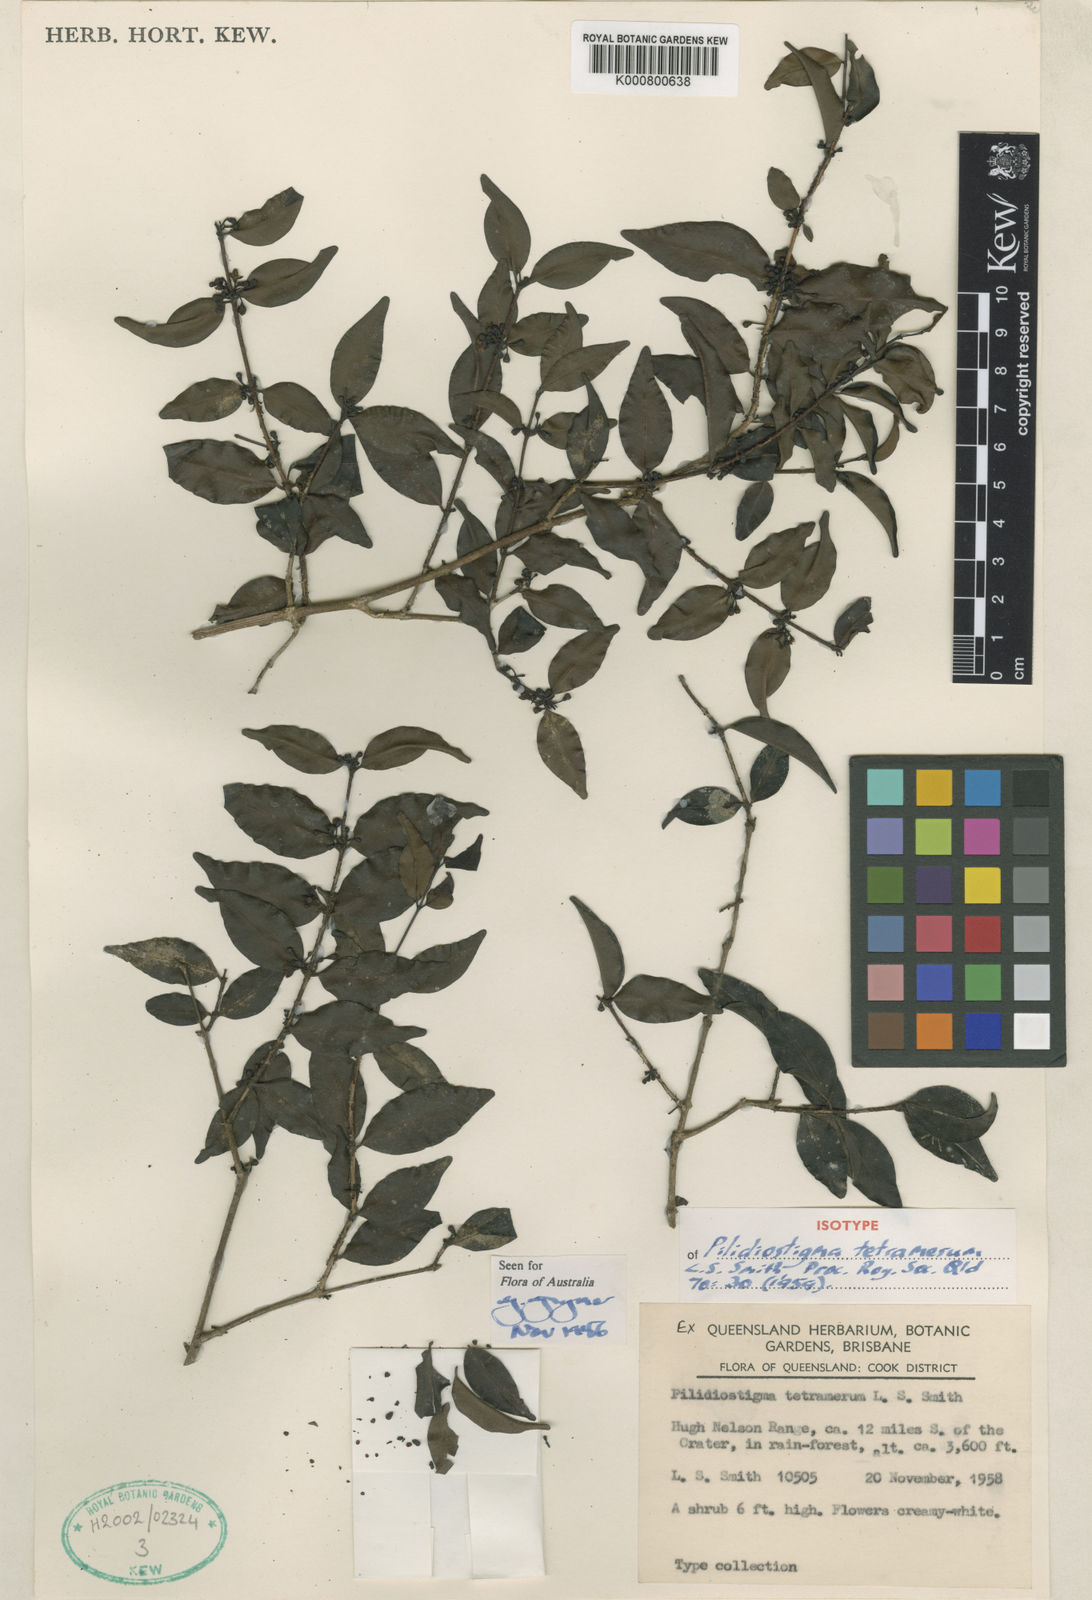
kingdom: Plantae
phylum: Tracheophyta
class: Magnoliopsida
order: Myrtales
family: Myrtaceae
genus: Pilidiostigma
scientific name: Pilidiostigma tetramerum
